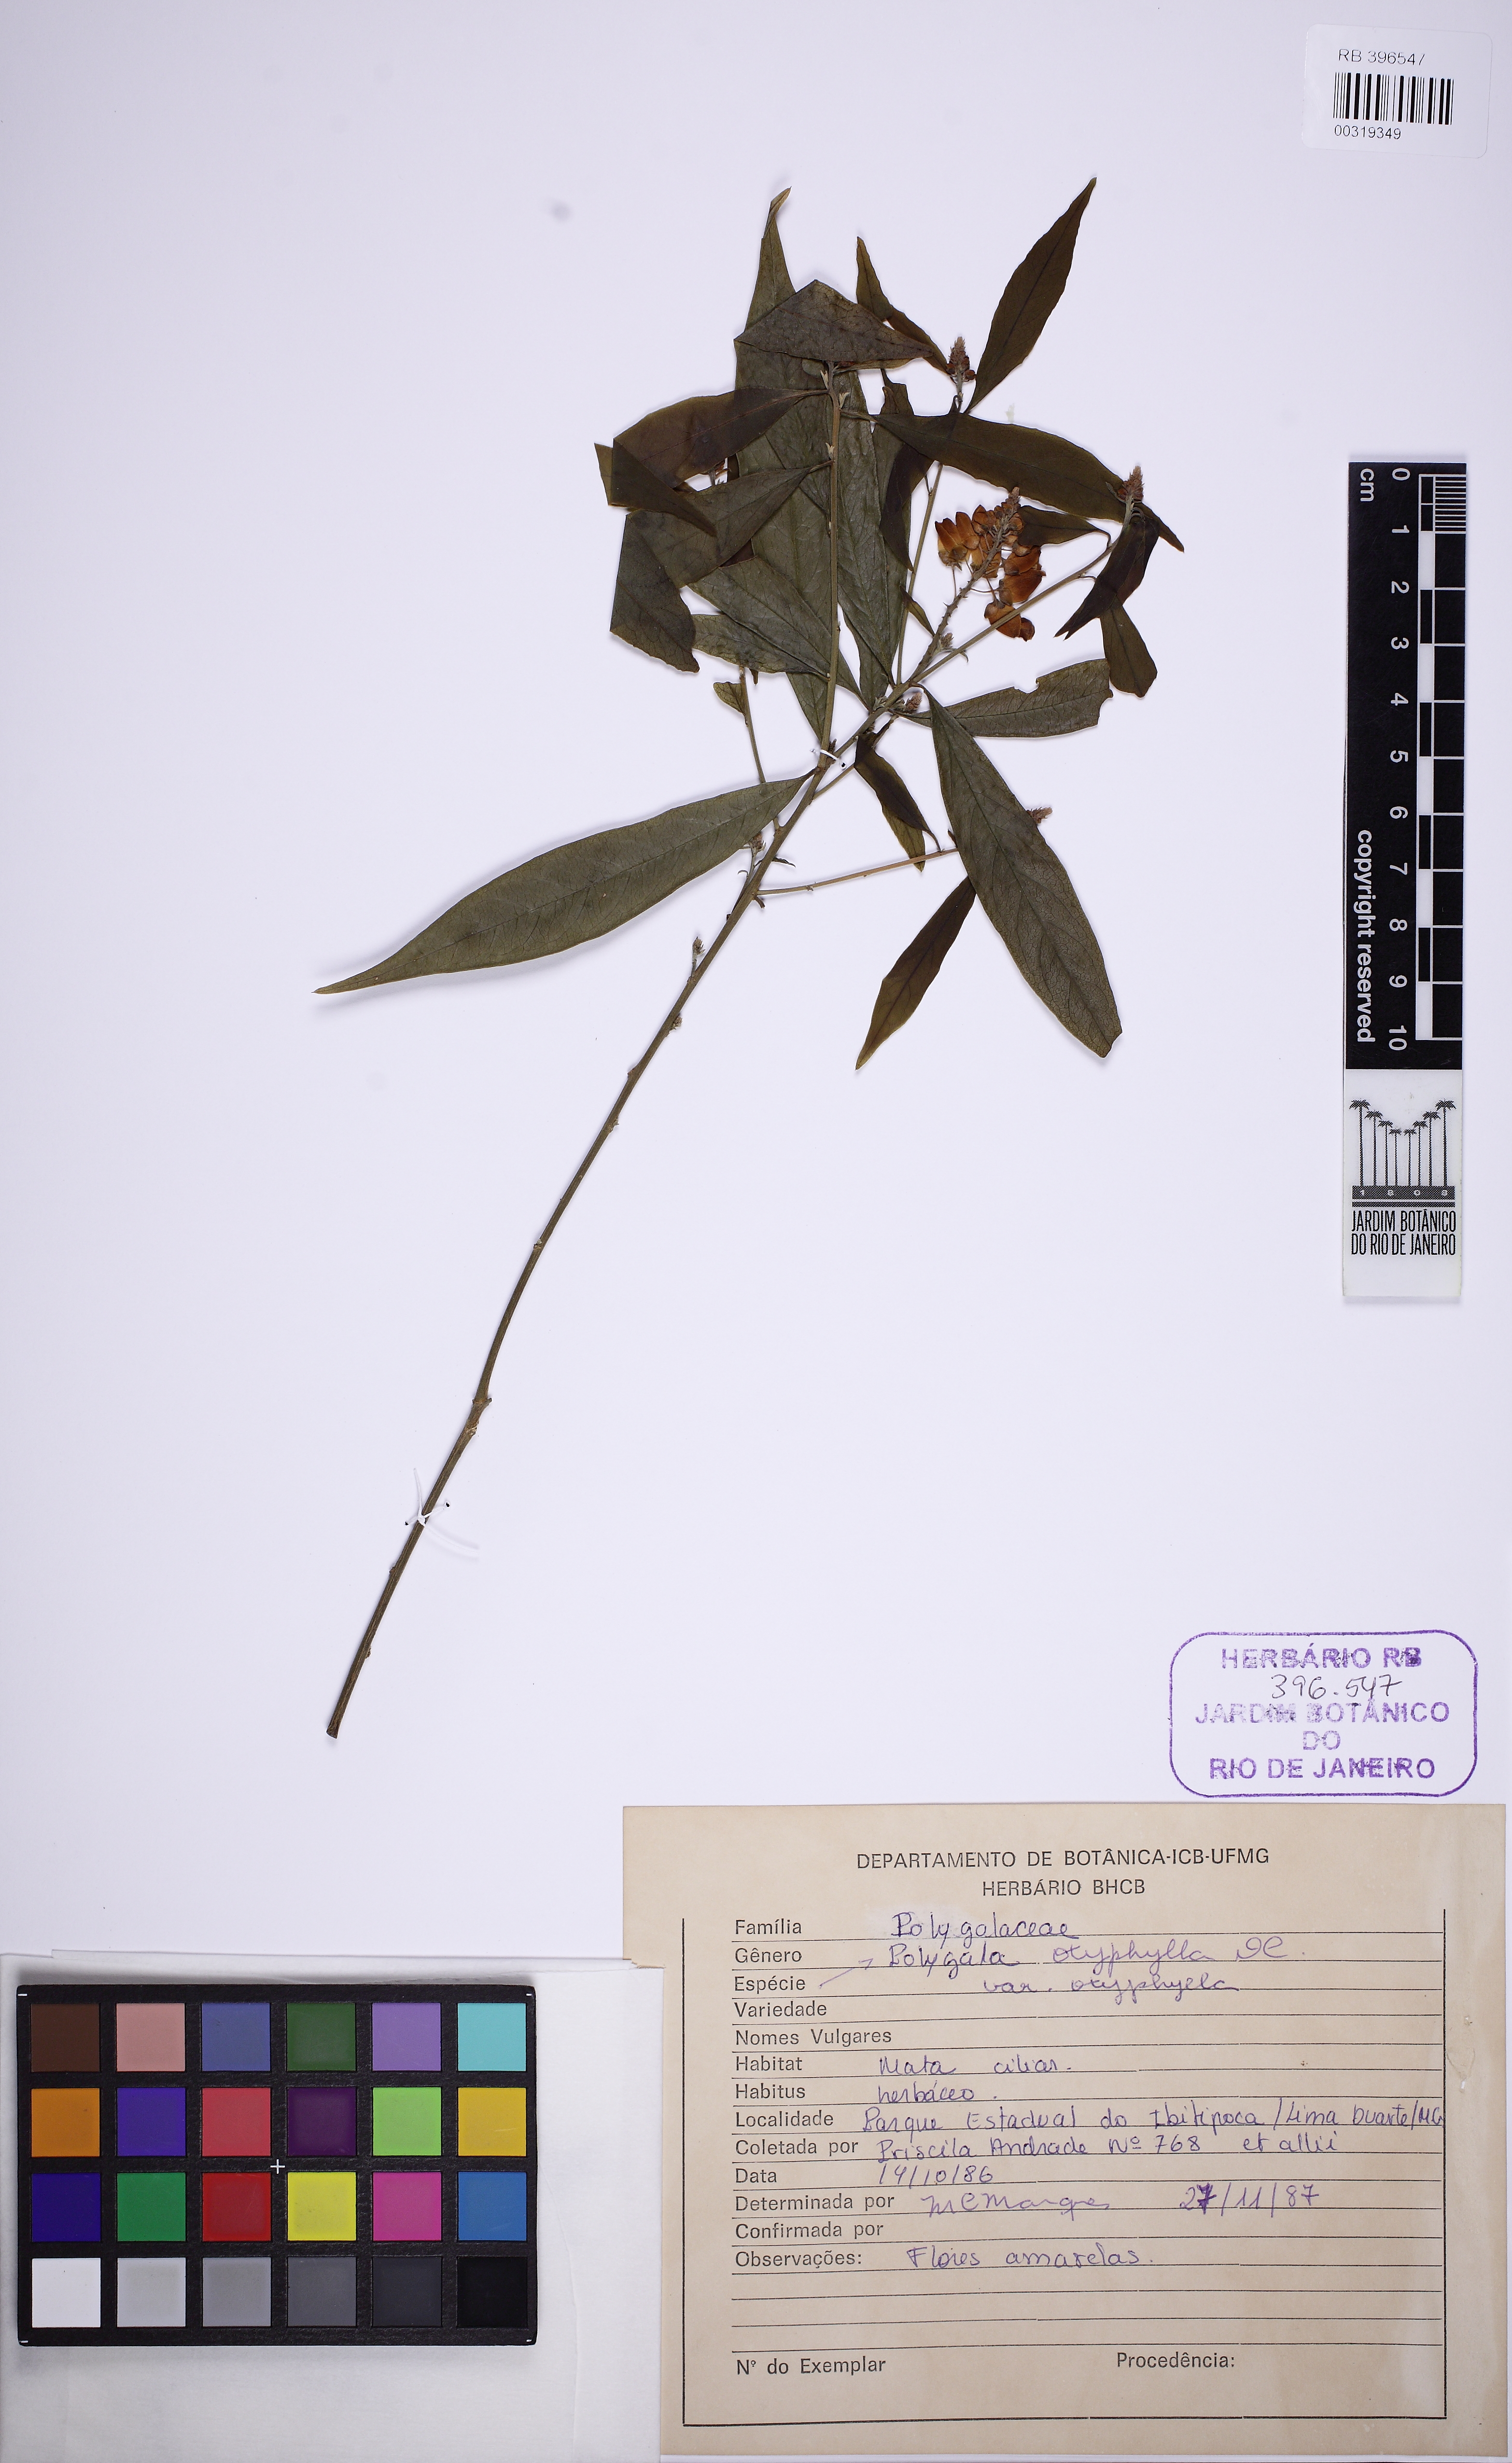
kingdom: Plantae
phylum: Tracheophyta
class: Magnoliopsida
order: Fabales
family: Polygalaceae
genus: Caamembeca
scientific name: Caamembeca
